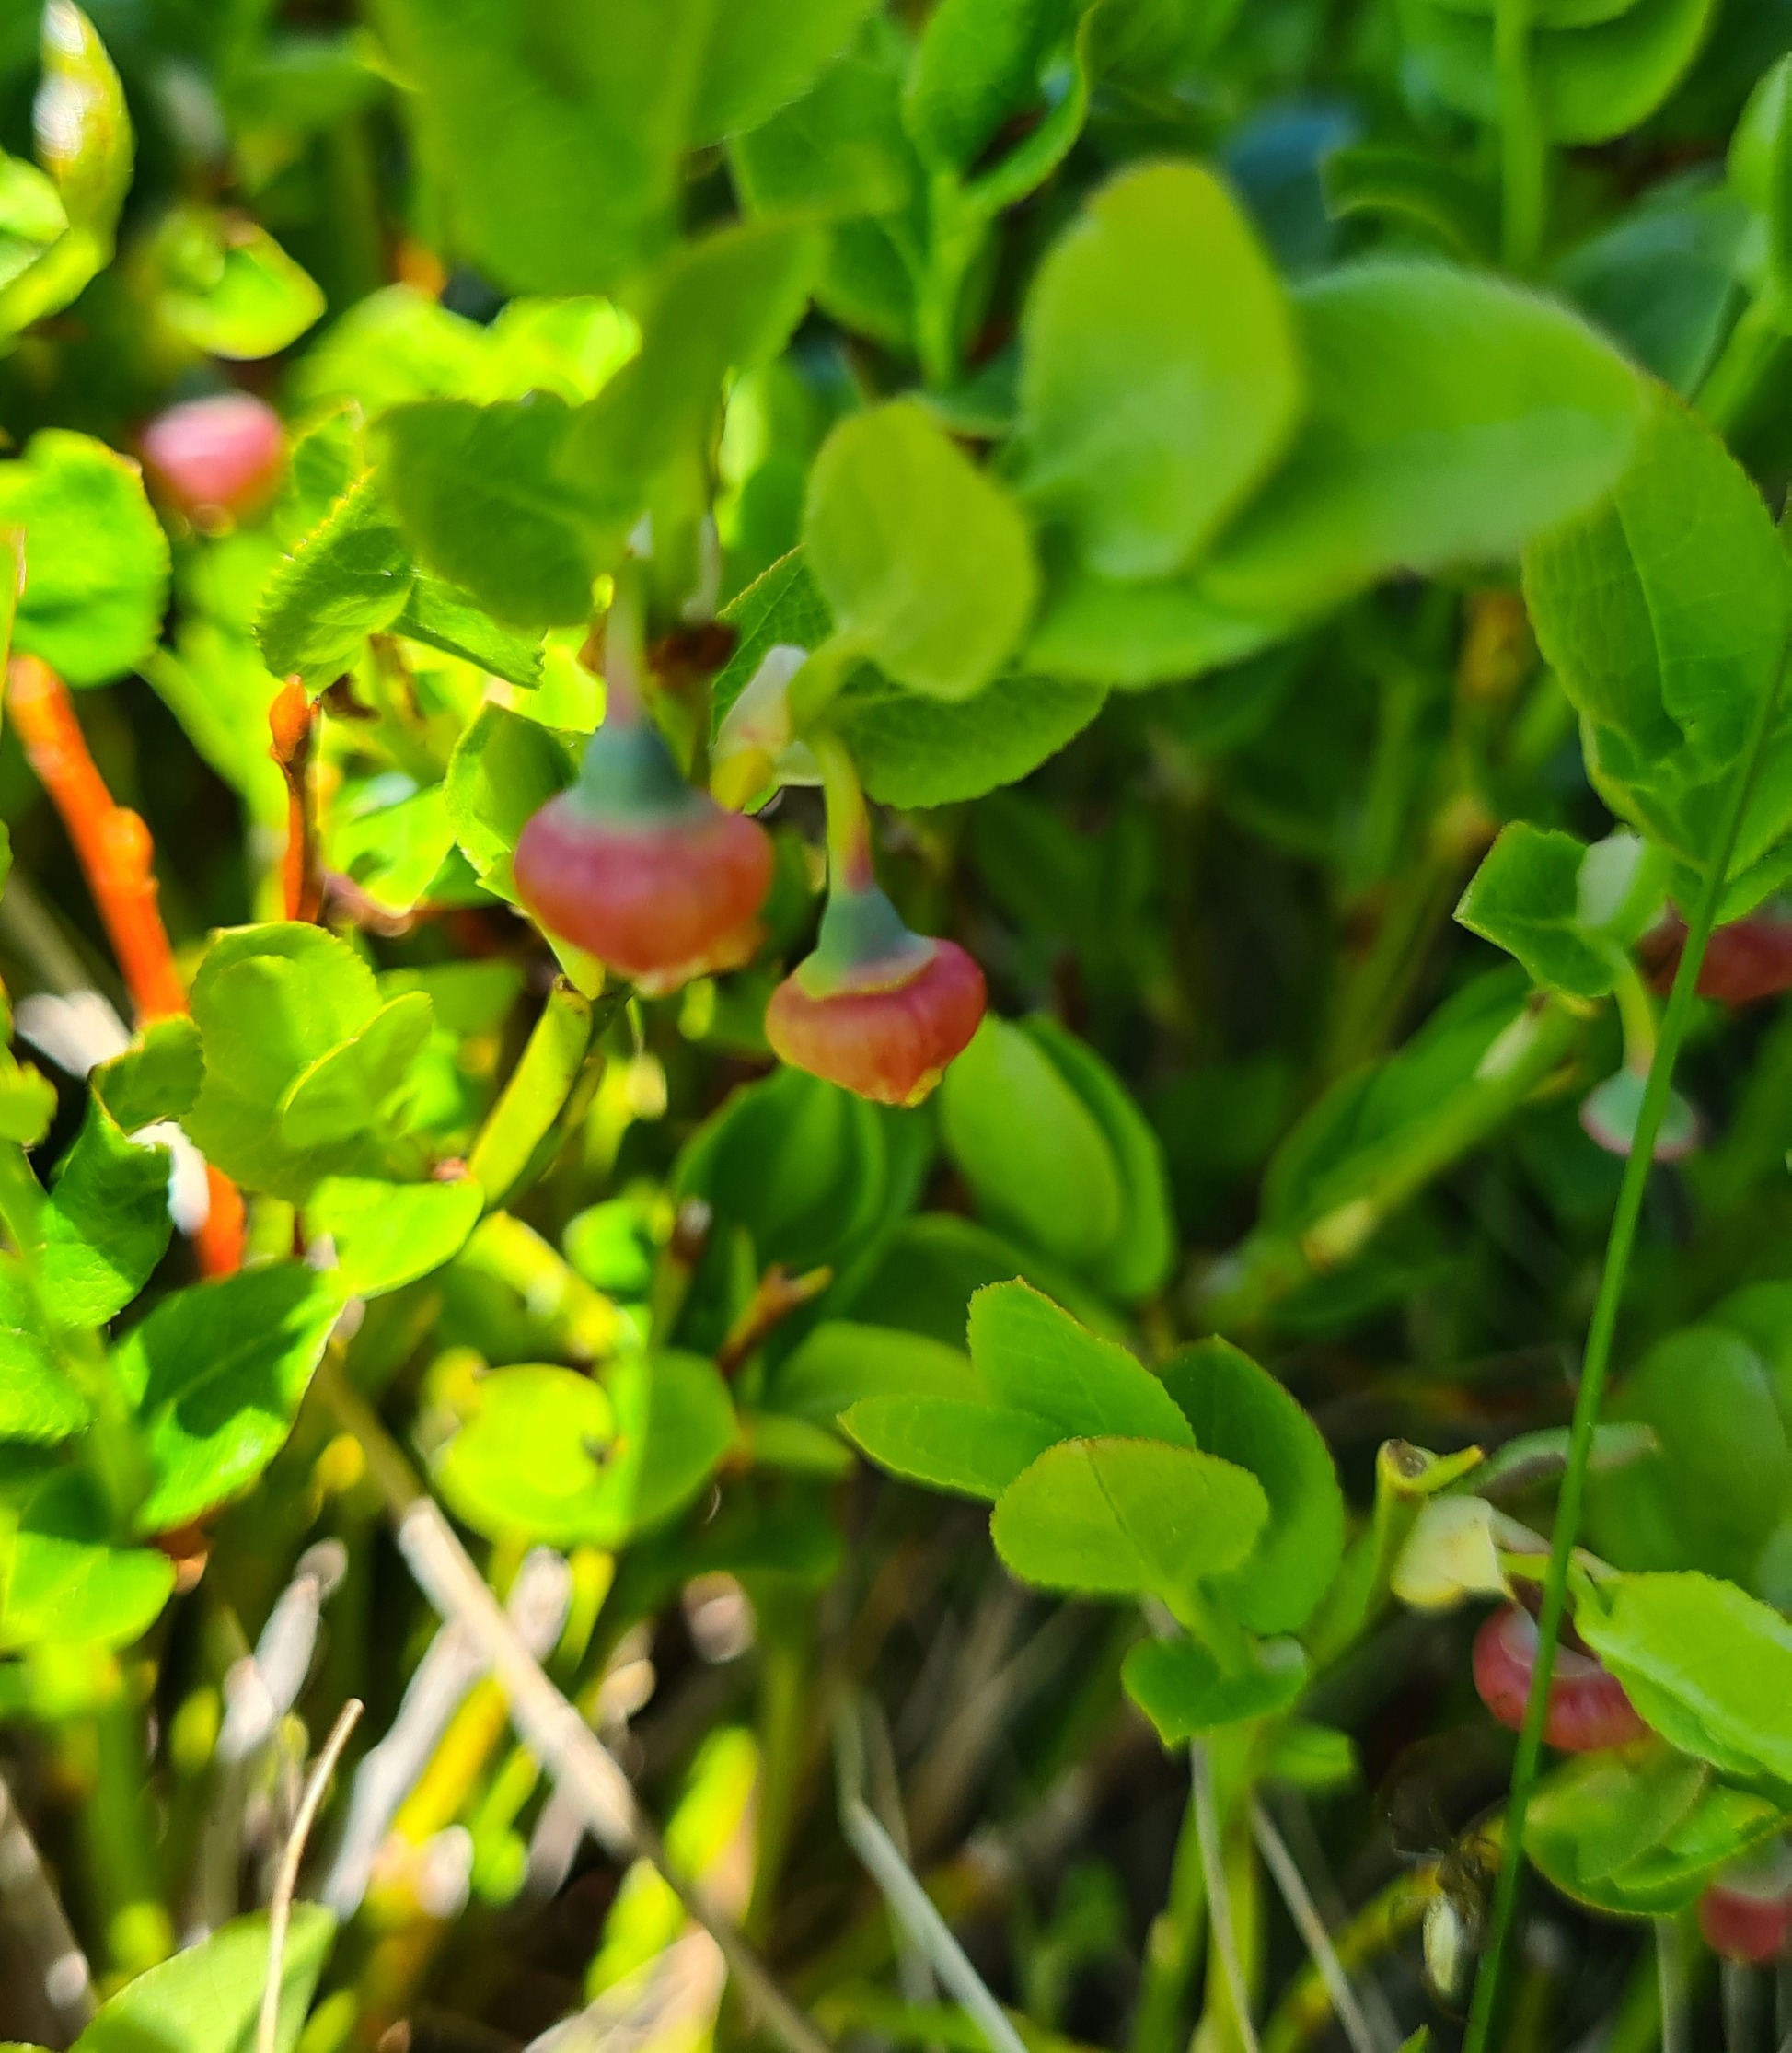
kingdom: Plantae
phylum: Tracheophyta
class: Magnoliopsida
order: Ericales
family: Ericaceae
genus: Vaccinium
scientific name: Vaccinium myrtillus
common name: Blåbær
